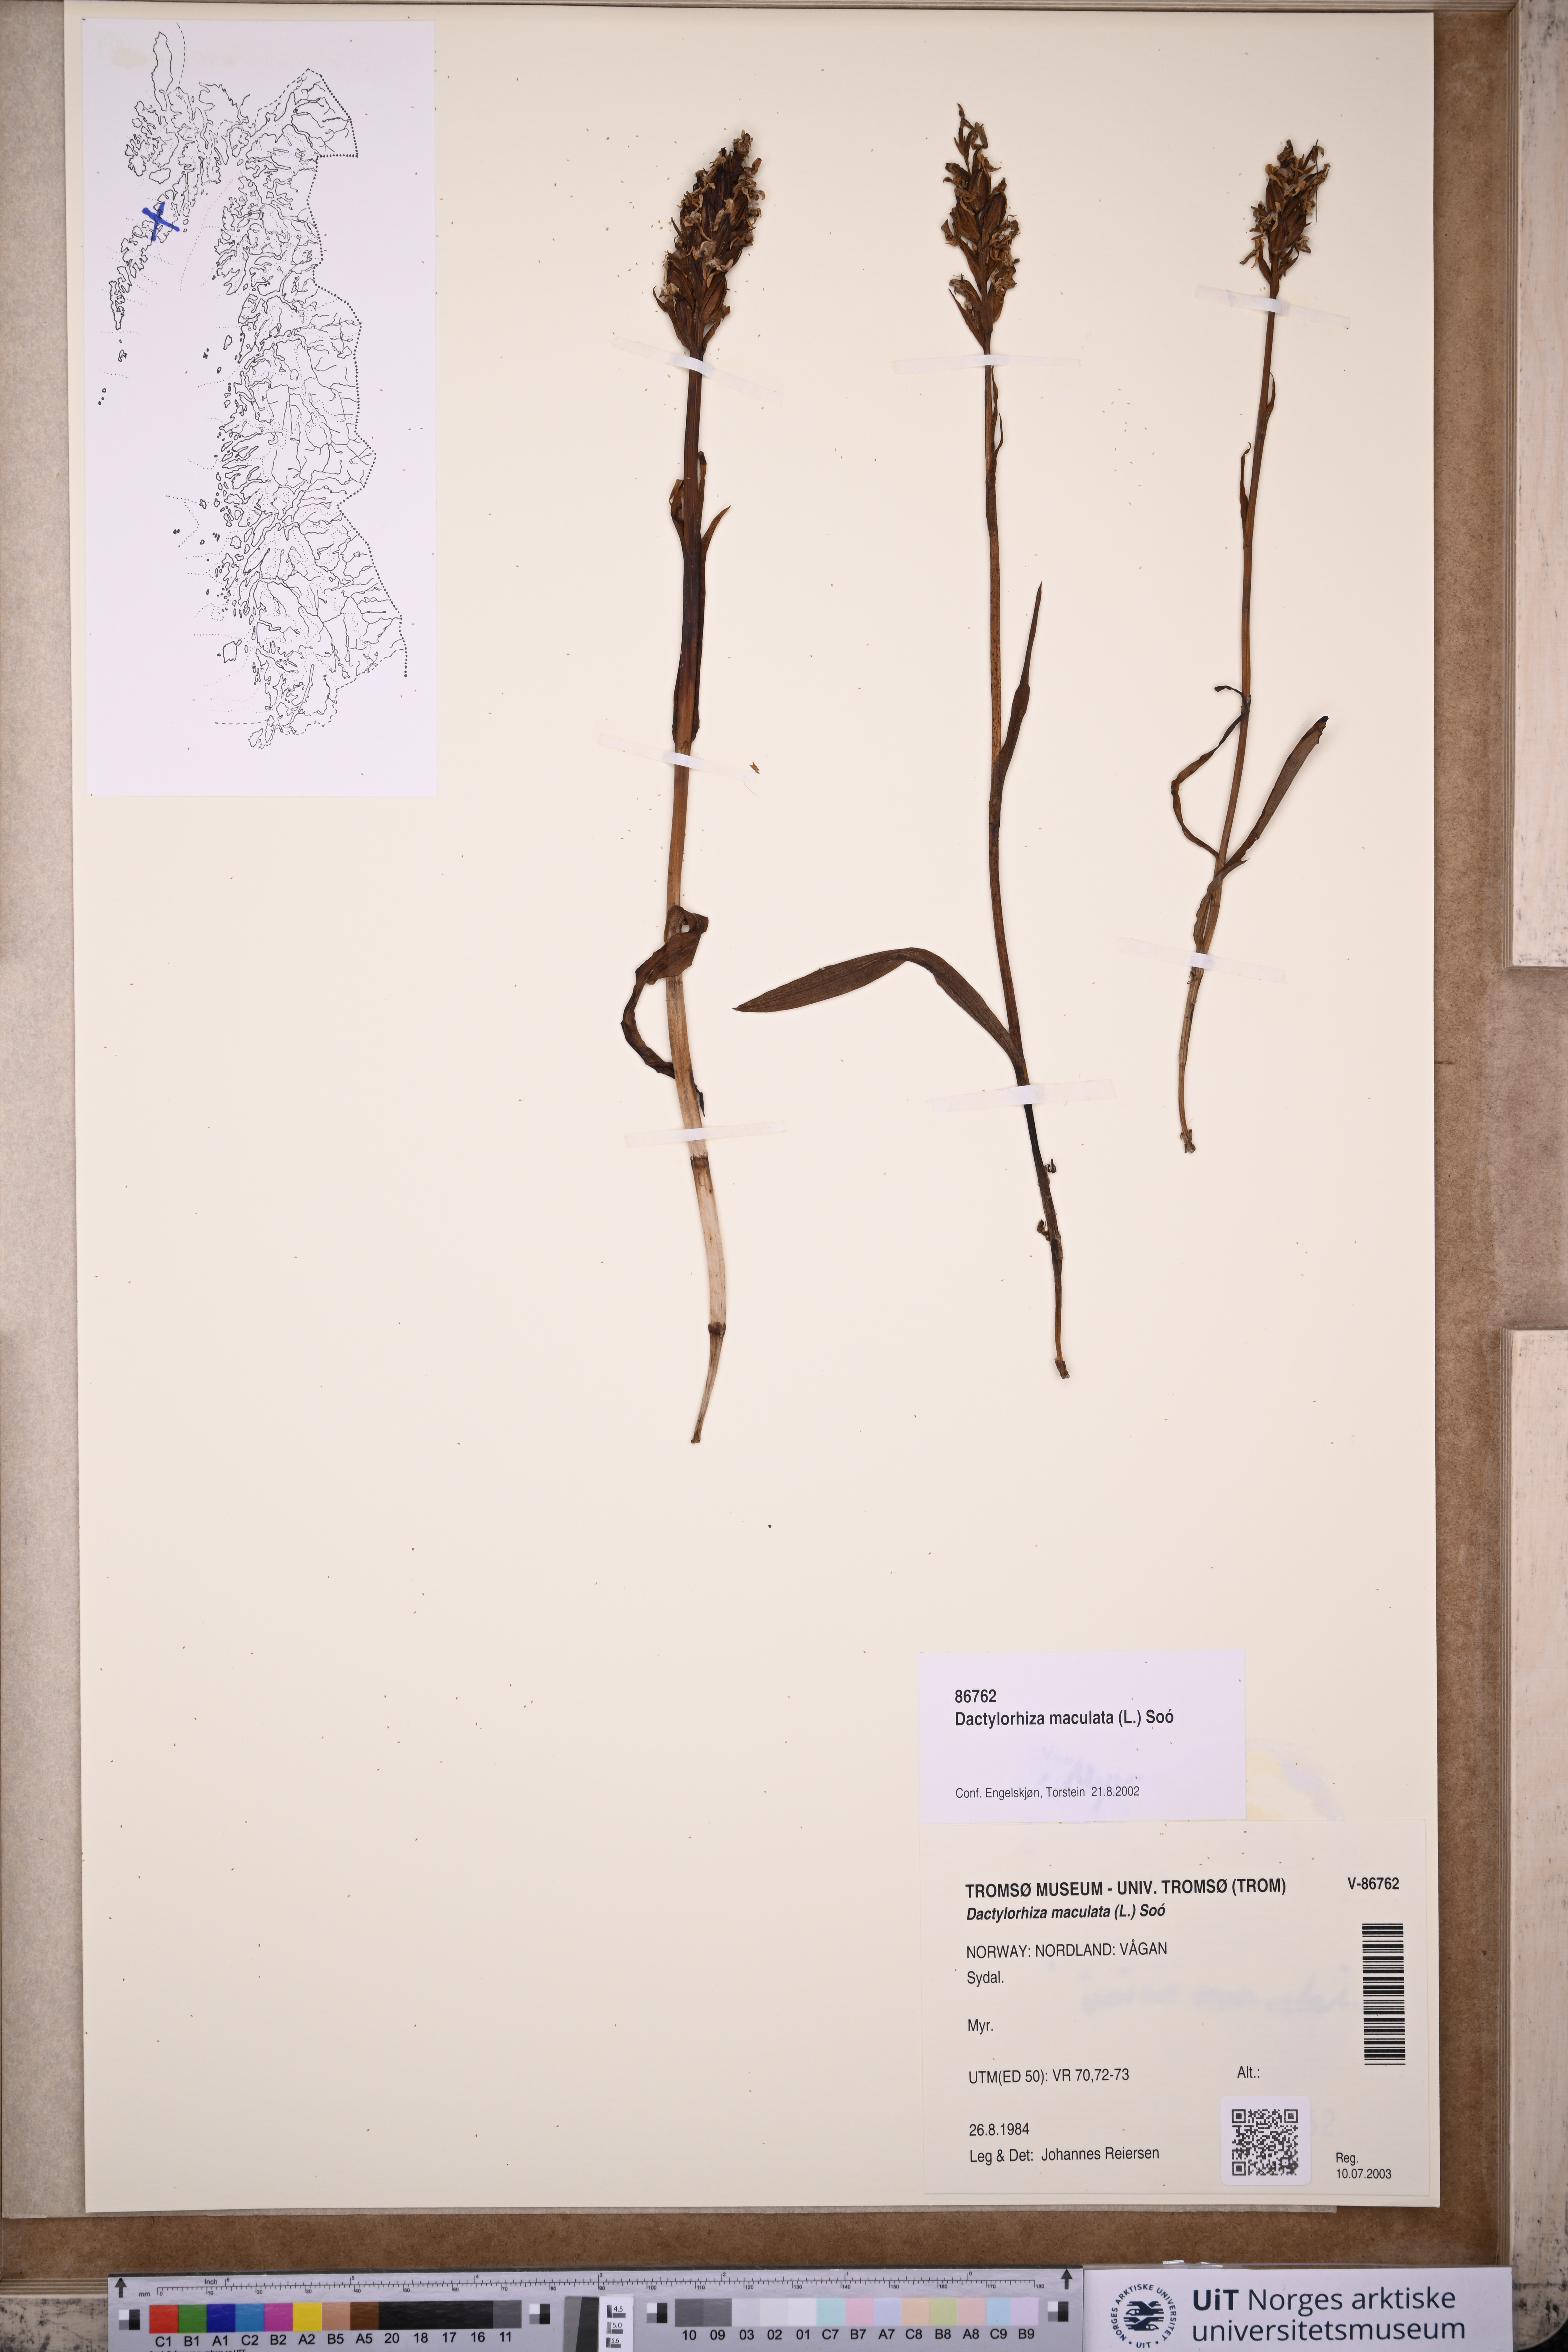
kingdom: Plantae
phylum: Tracheophyta
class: Liliopsida
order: Asparagales
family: Orchidaceae
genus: Dactylorhiza
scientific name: Dactylorhiza maculata
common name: Heath spotted-orchid
